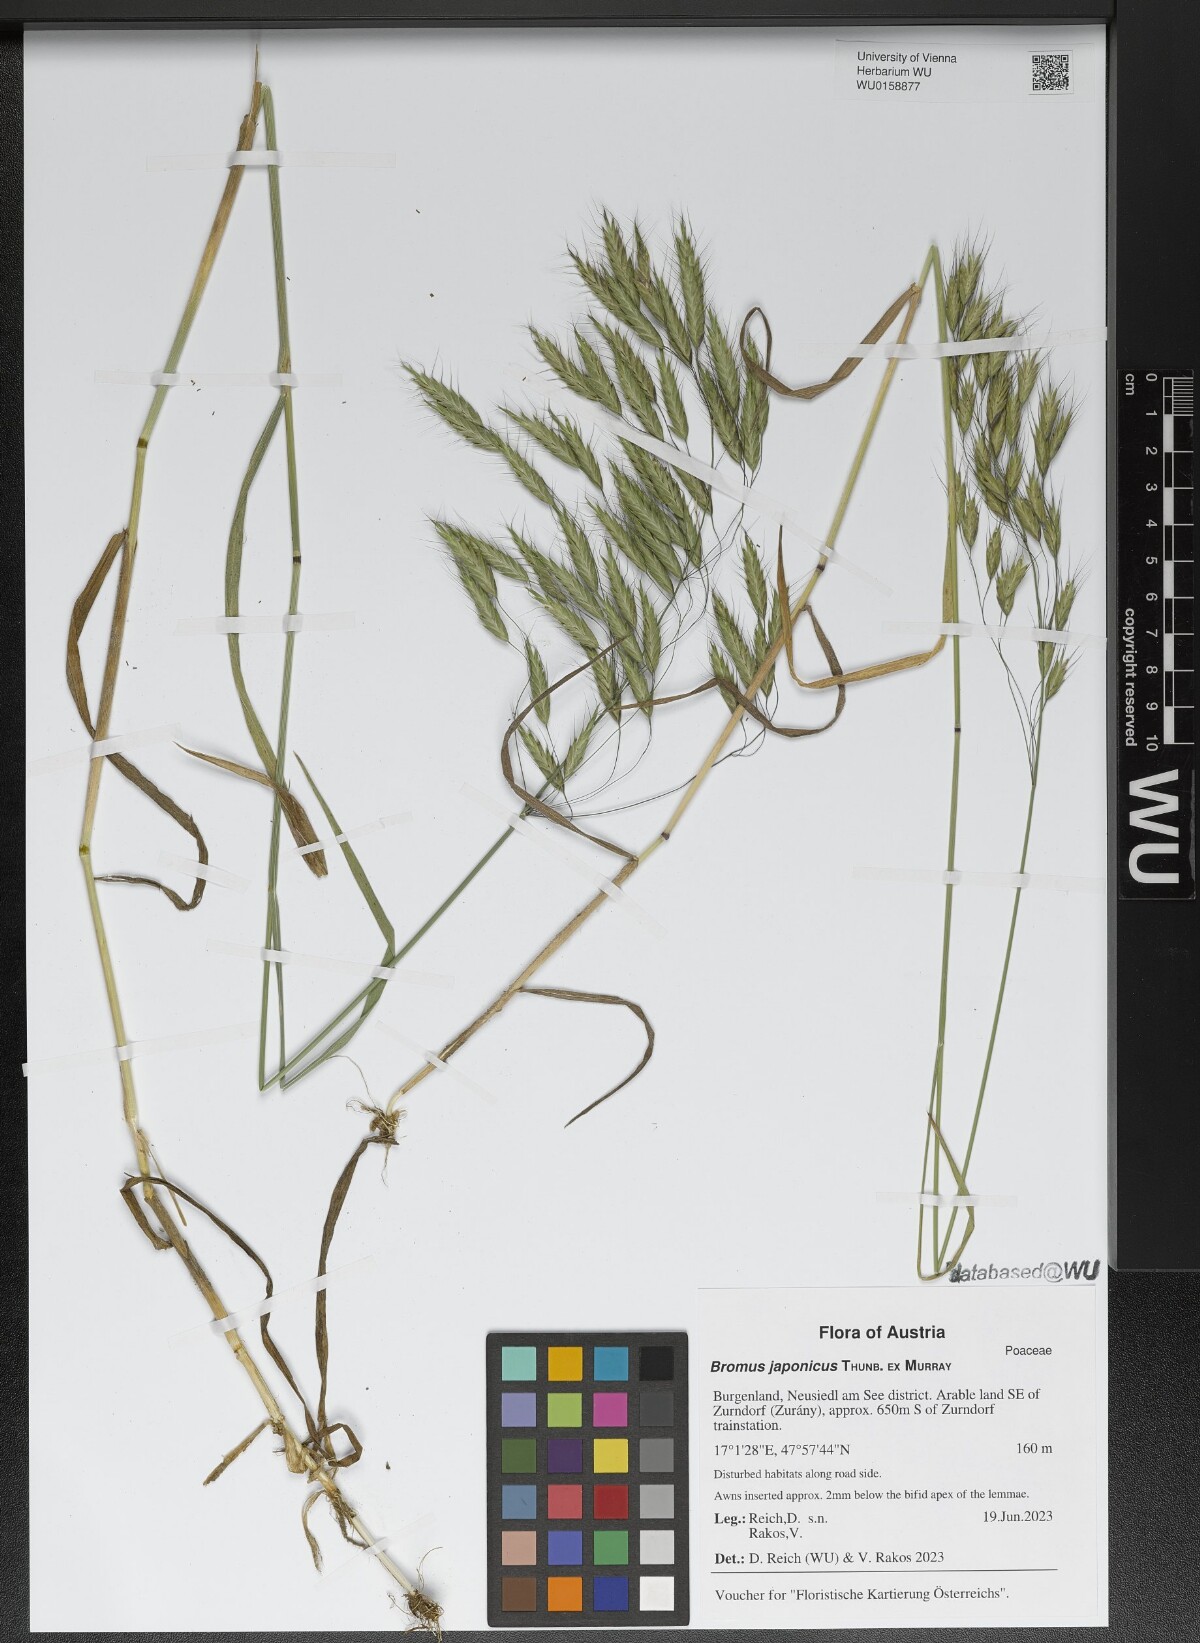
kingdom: Plantae
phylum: Tracheophyta
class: Liliopsida
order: Poales
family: Poaceae
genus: Bromus
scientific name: Bromus japonicus
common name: Japanese brome
